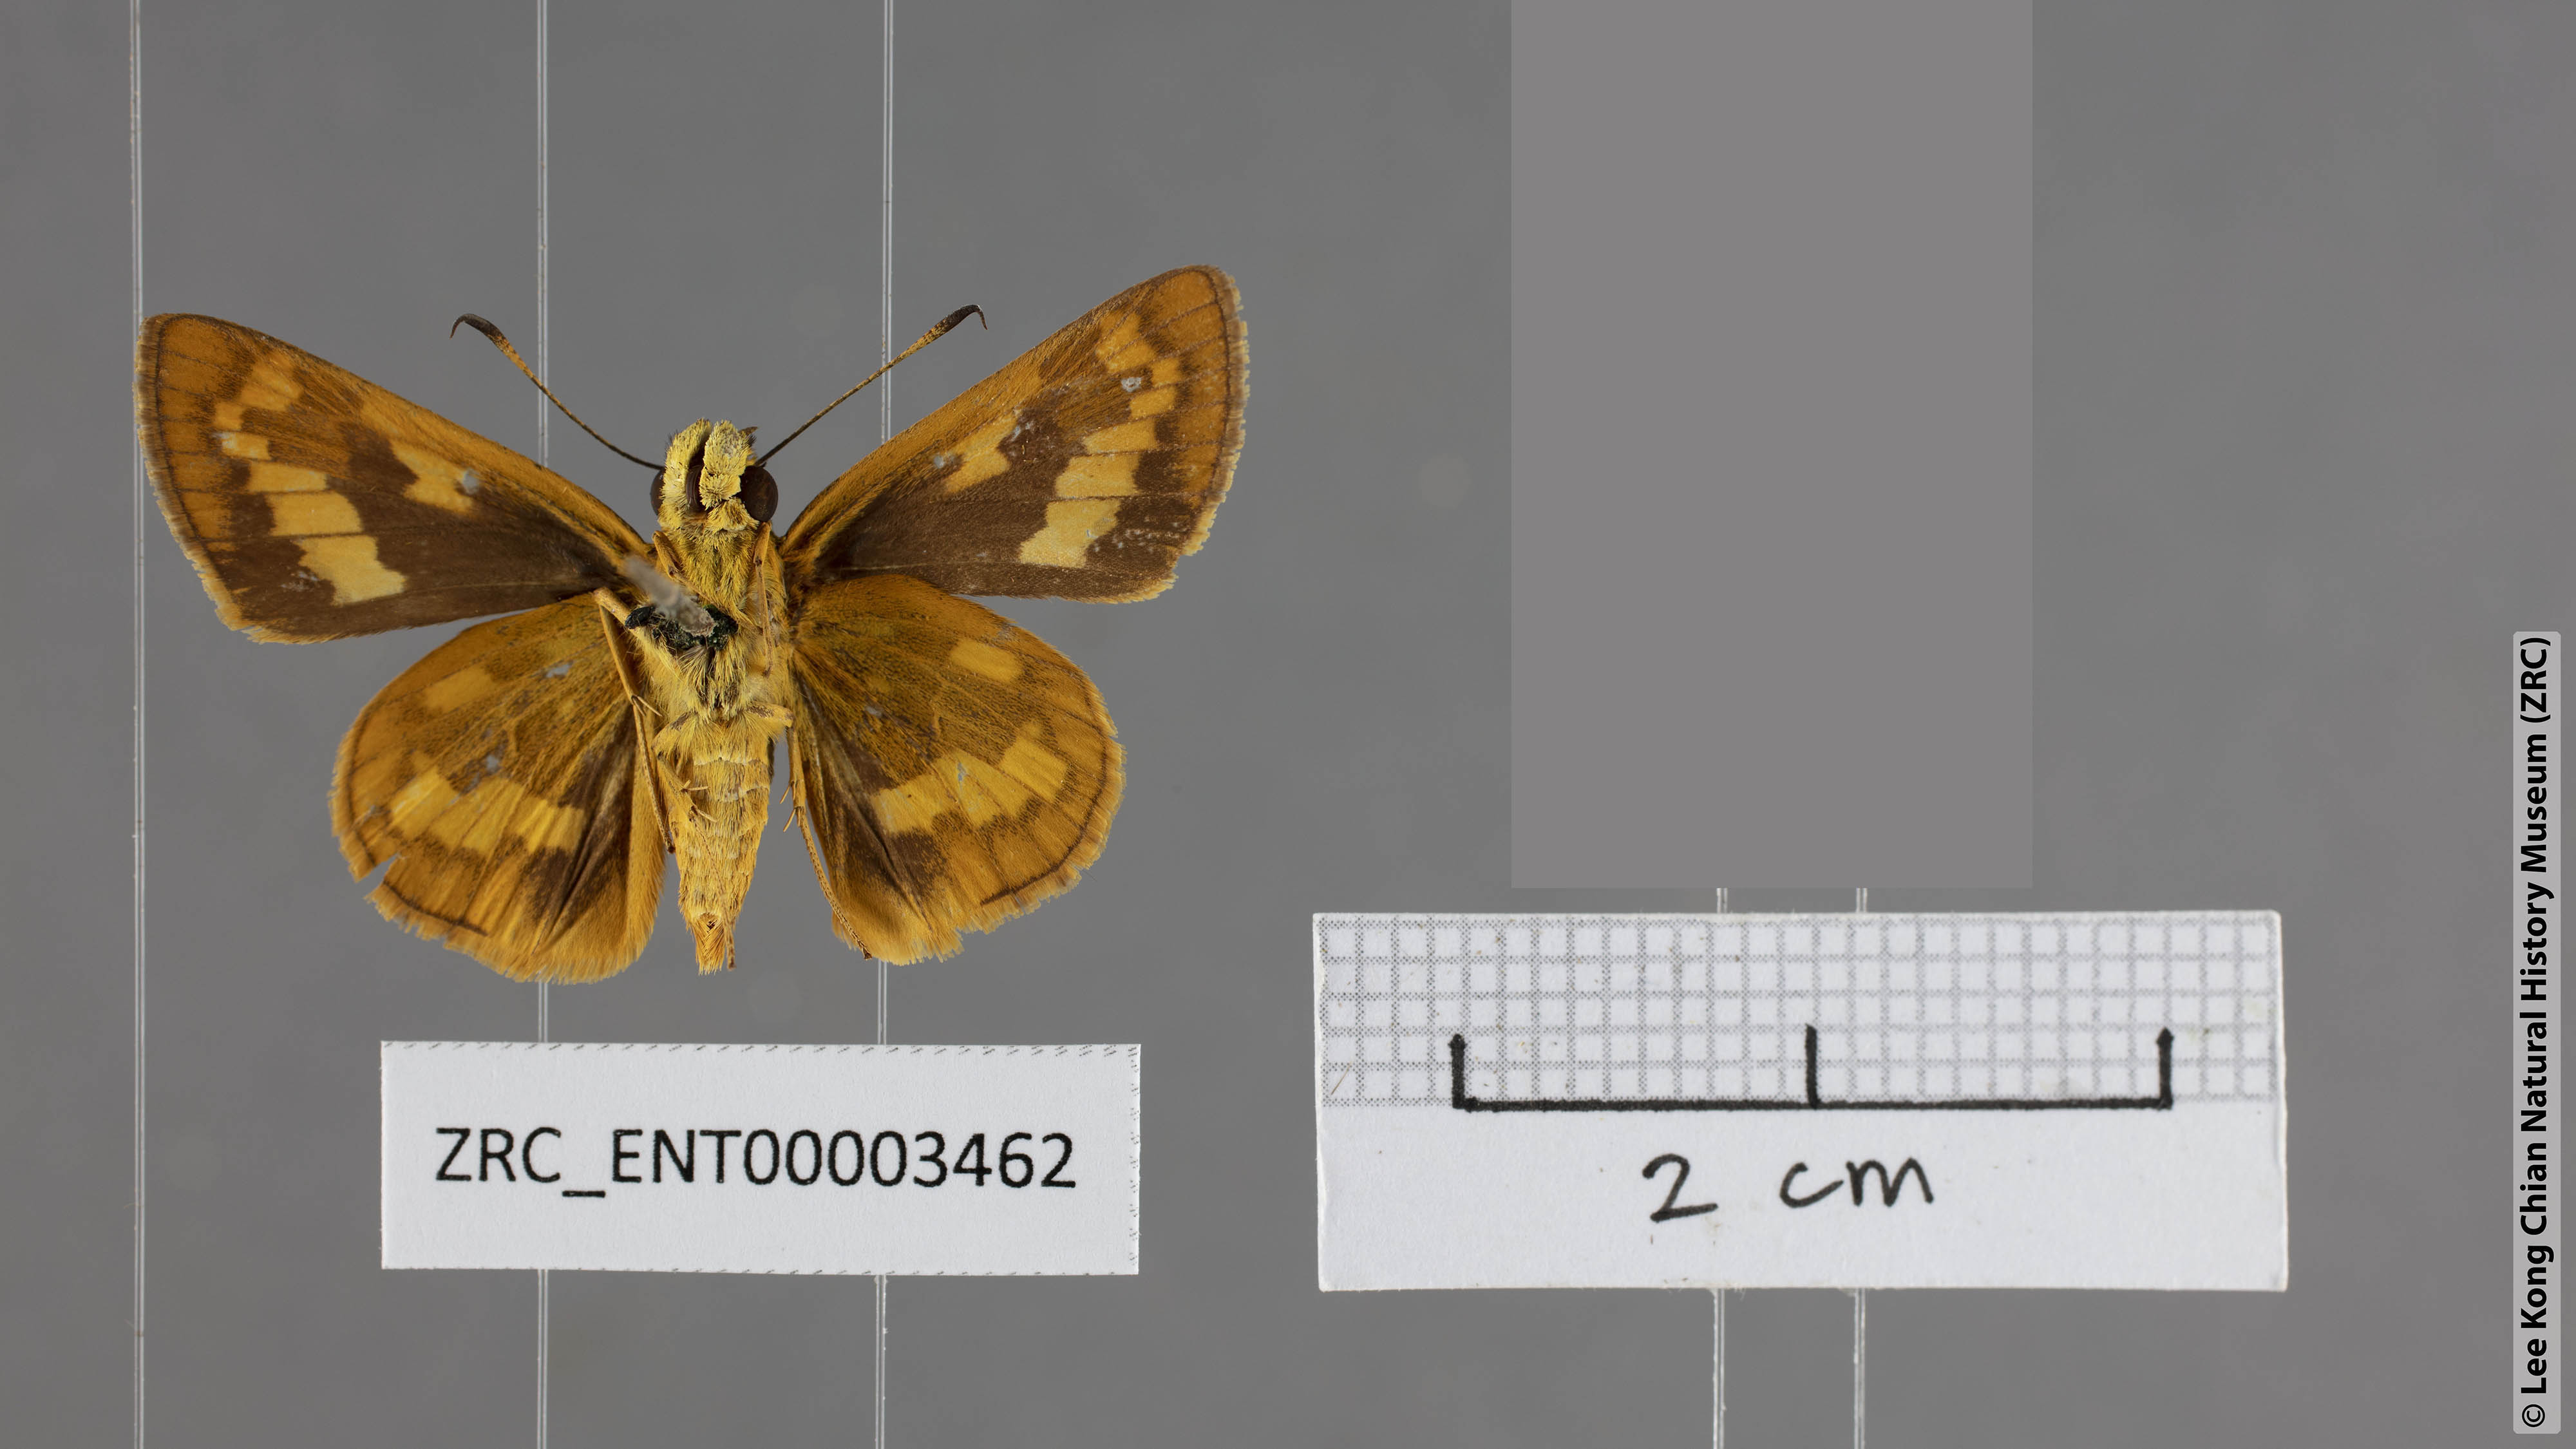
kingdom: Animalia
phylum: Arthropoda
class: Insecta
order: Lepidoptera
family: Hesperiidae
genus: Potanthus
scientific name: Potanthus flava
